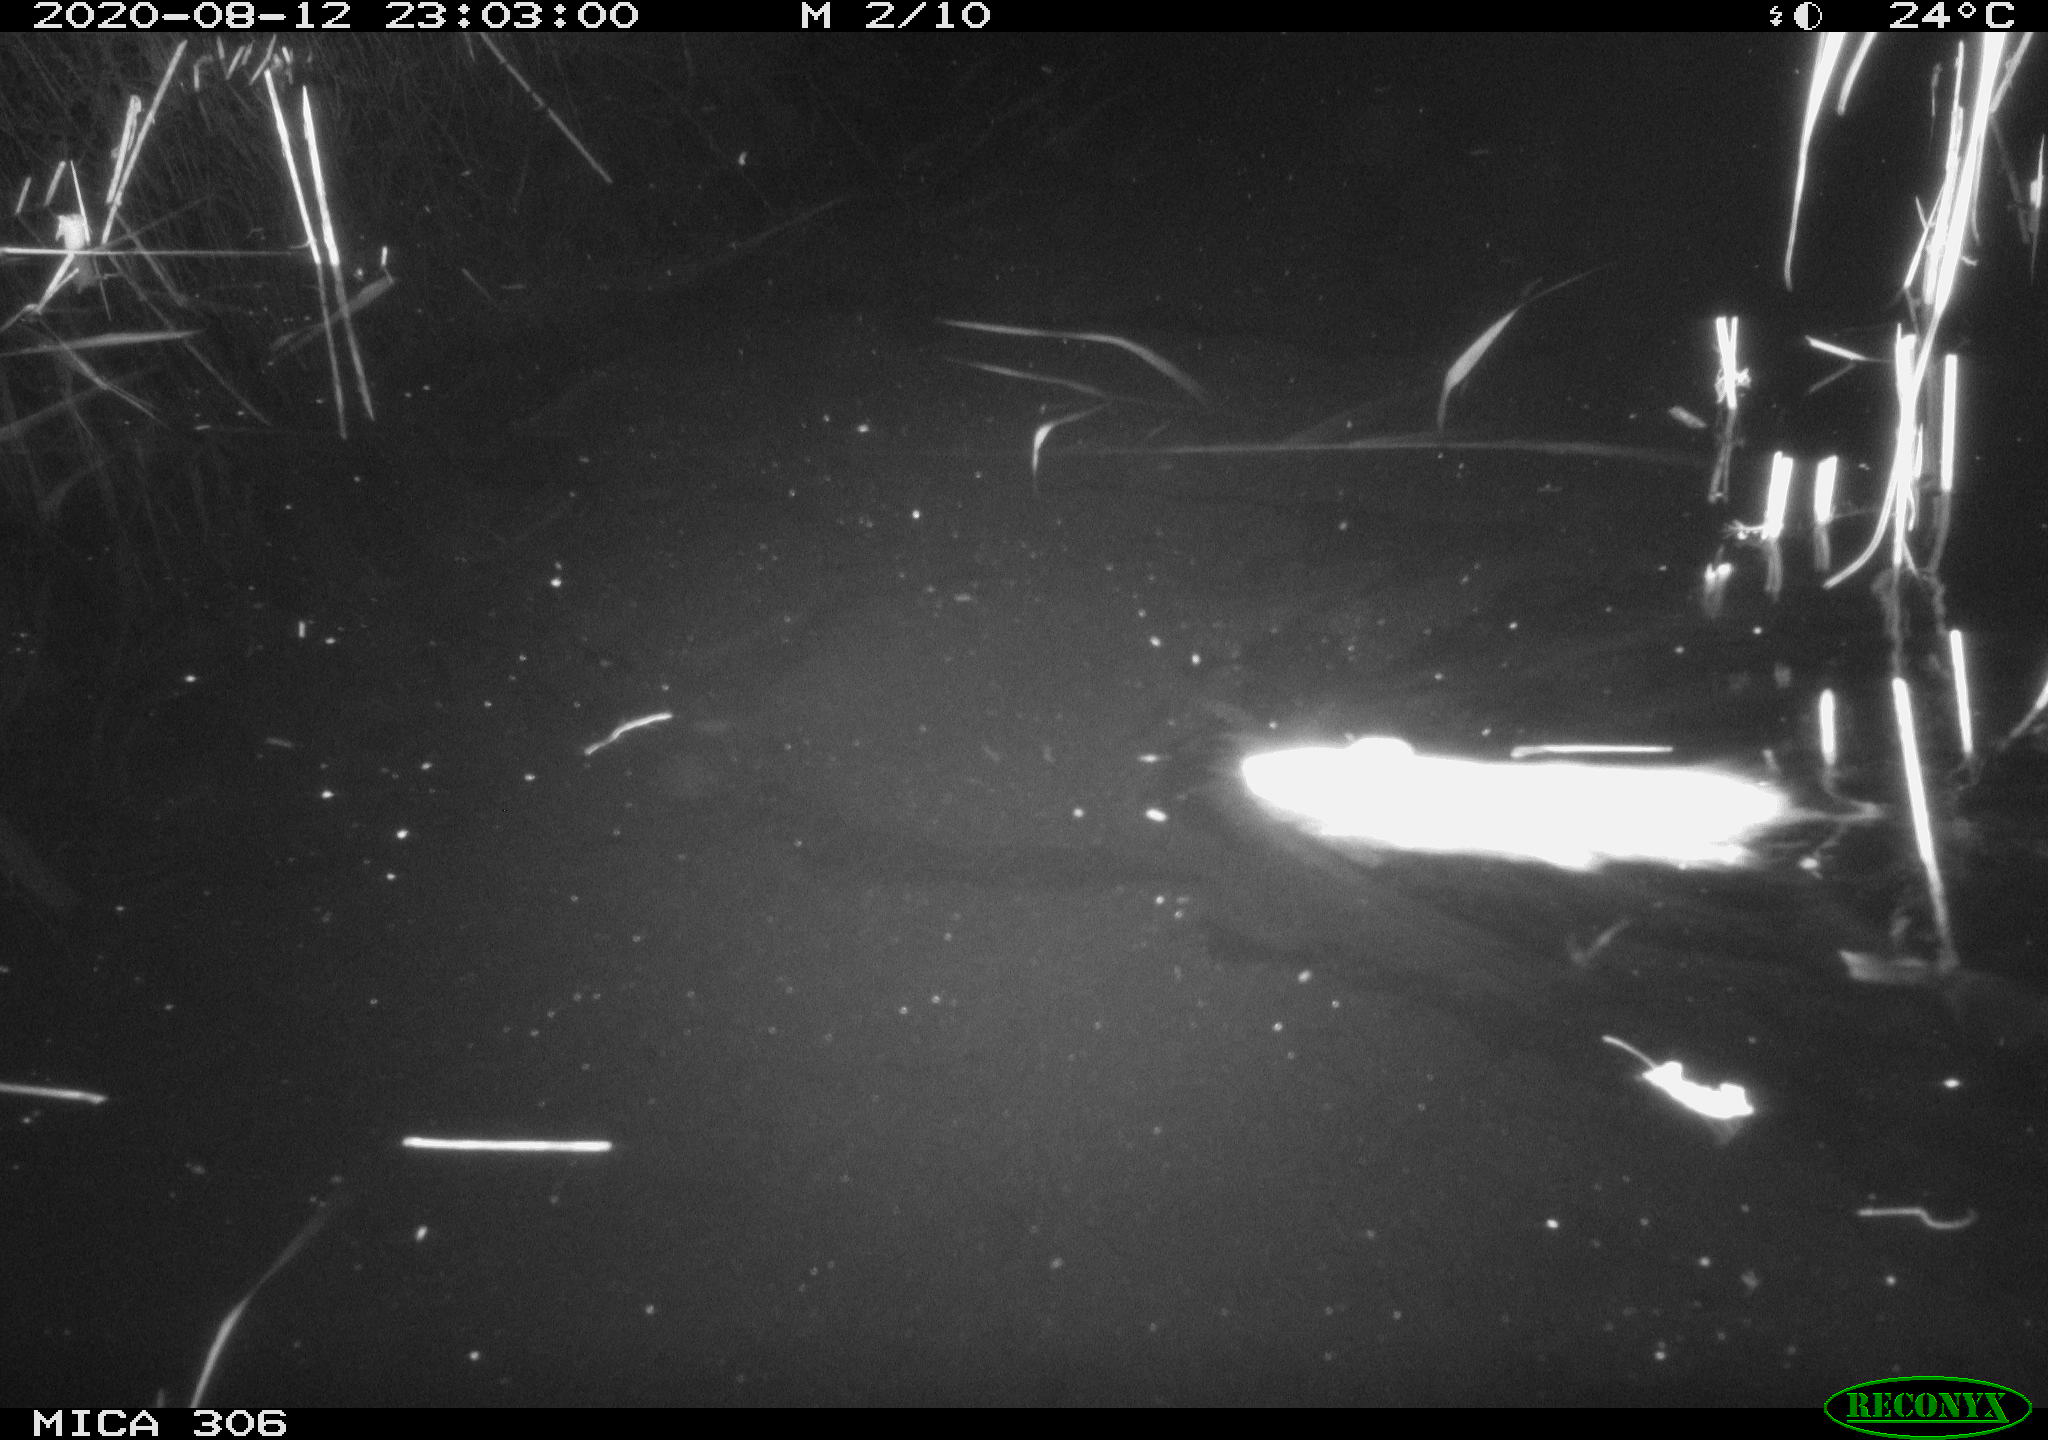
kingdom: Animalia
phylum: Chordata
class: Mammalia
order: Rodentia
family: Muridae
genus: Rattus
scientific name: Rattus norvegicus
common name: Brown rat
